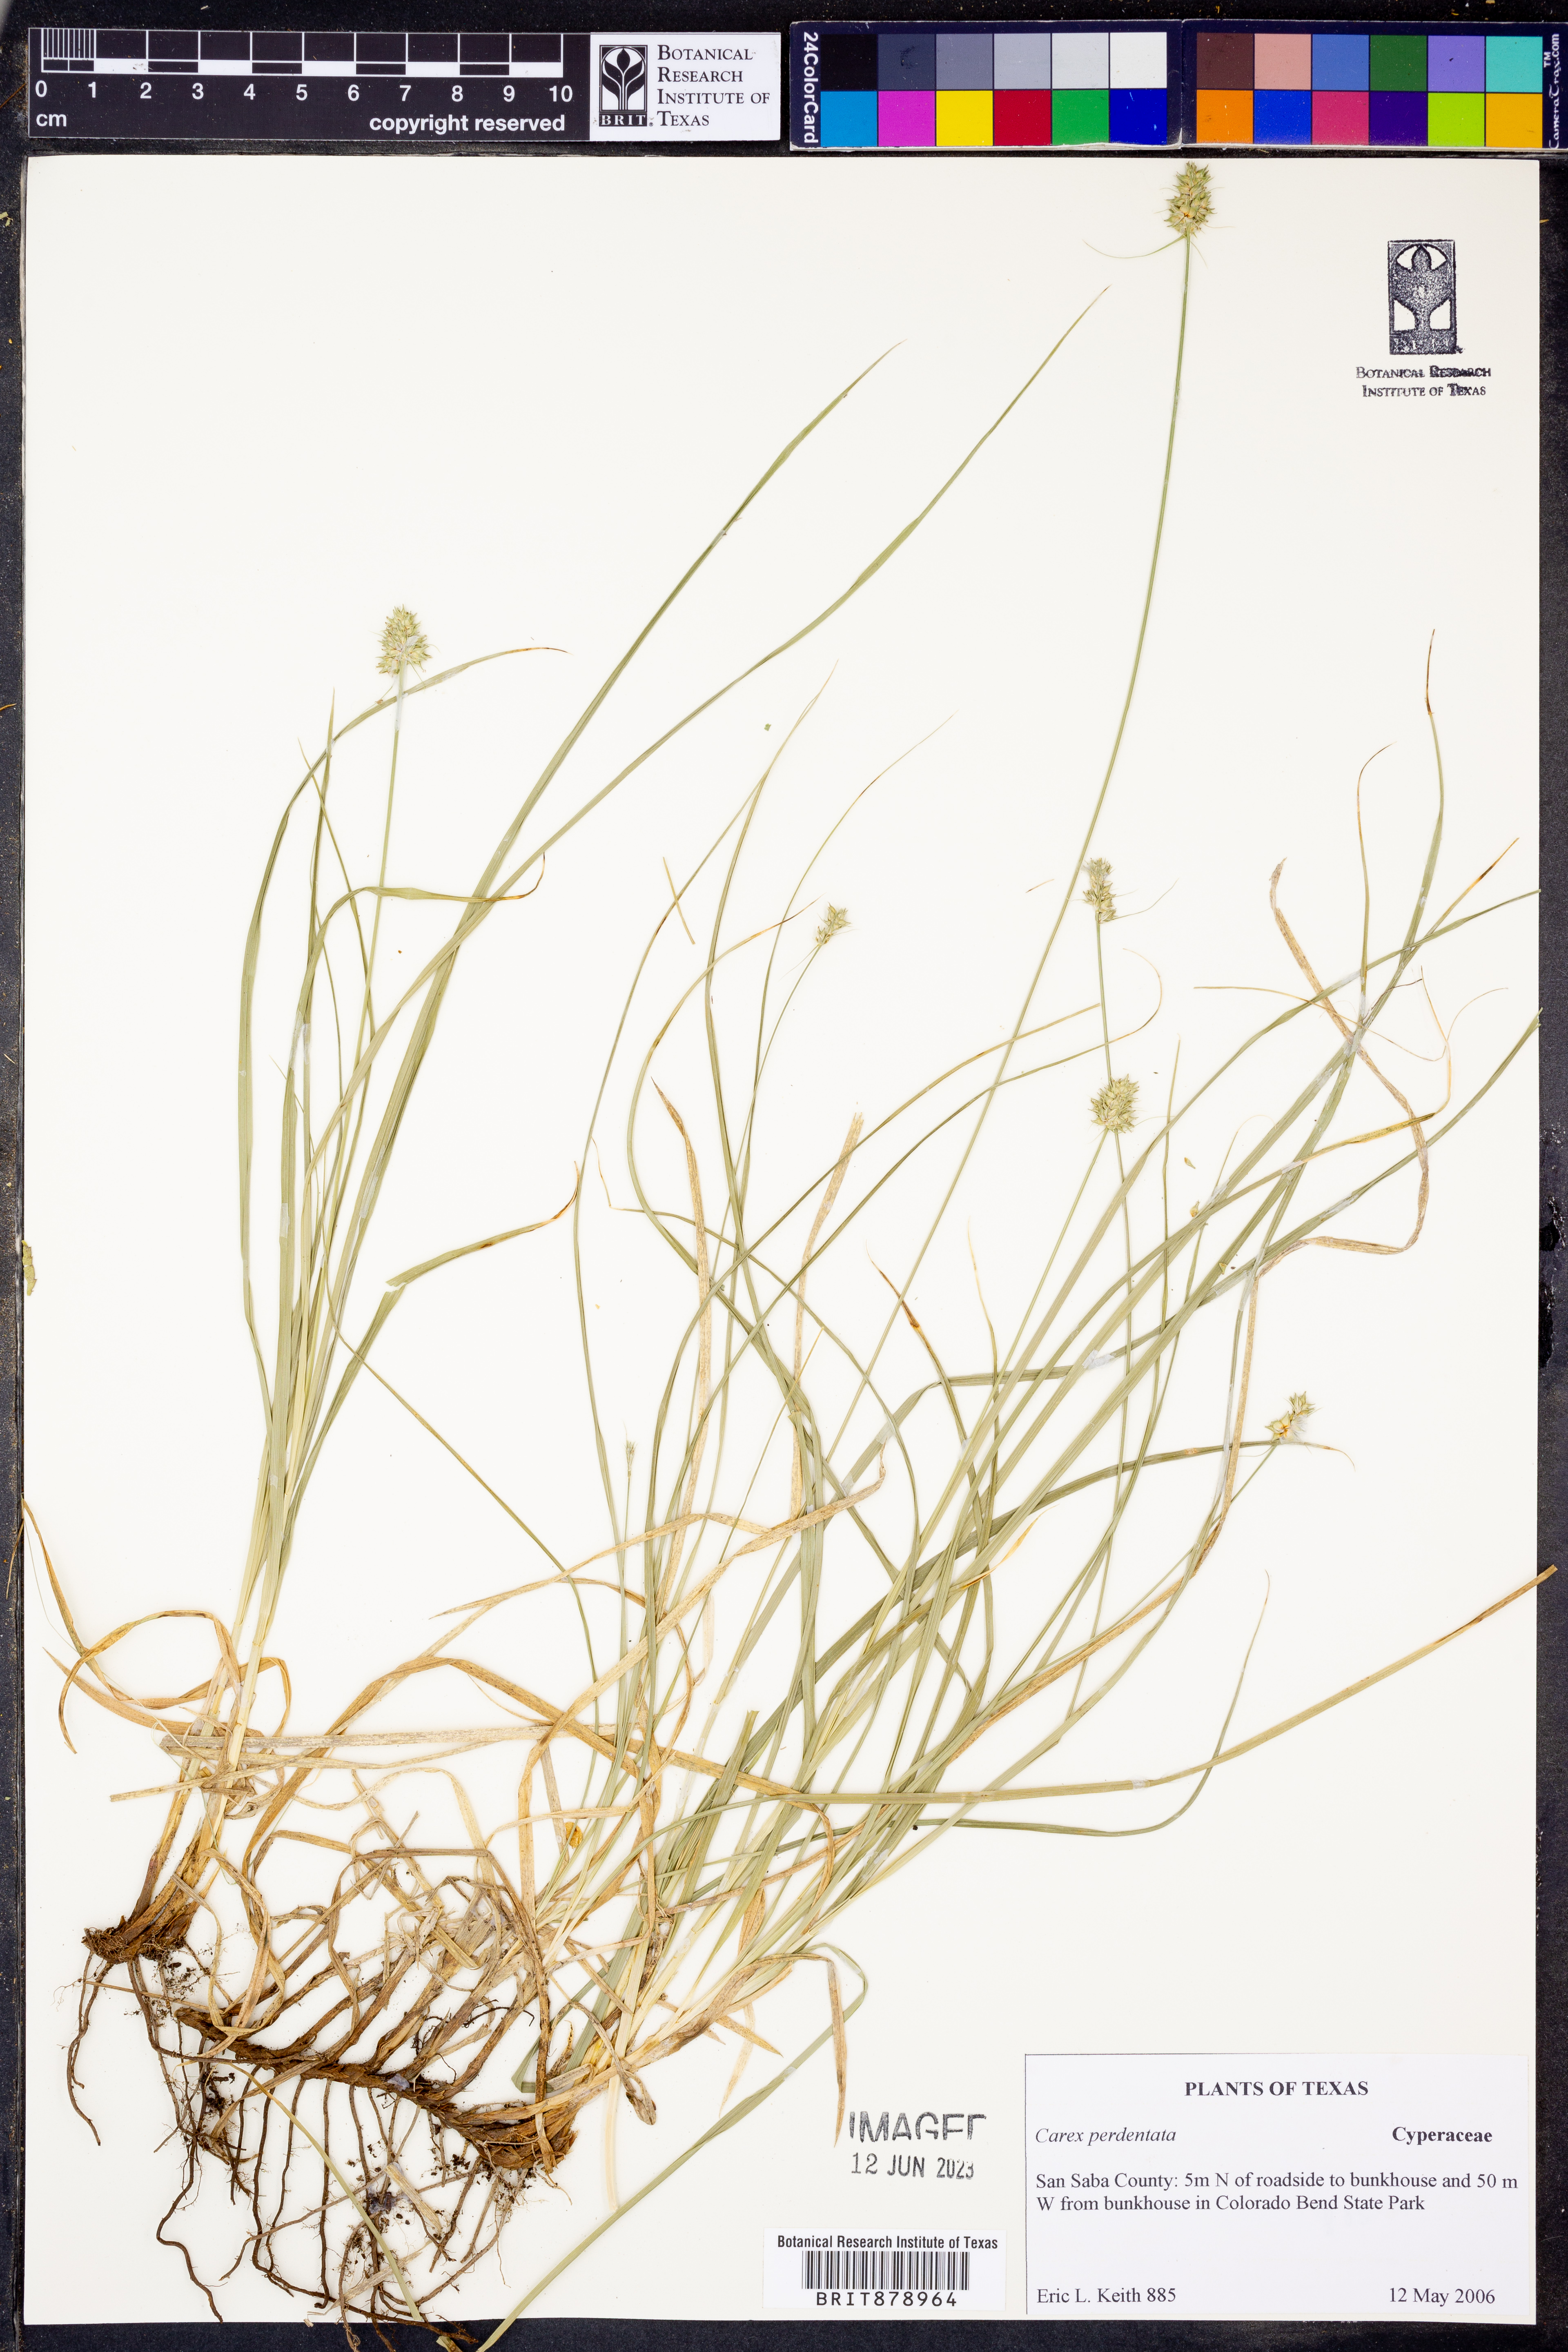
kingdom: Plantae
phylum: Tracheophyta
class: Liliopsida
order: Poales
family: Cyperaceae
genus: Carex
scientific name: Carex perdentata
